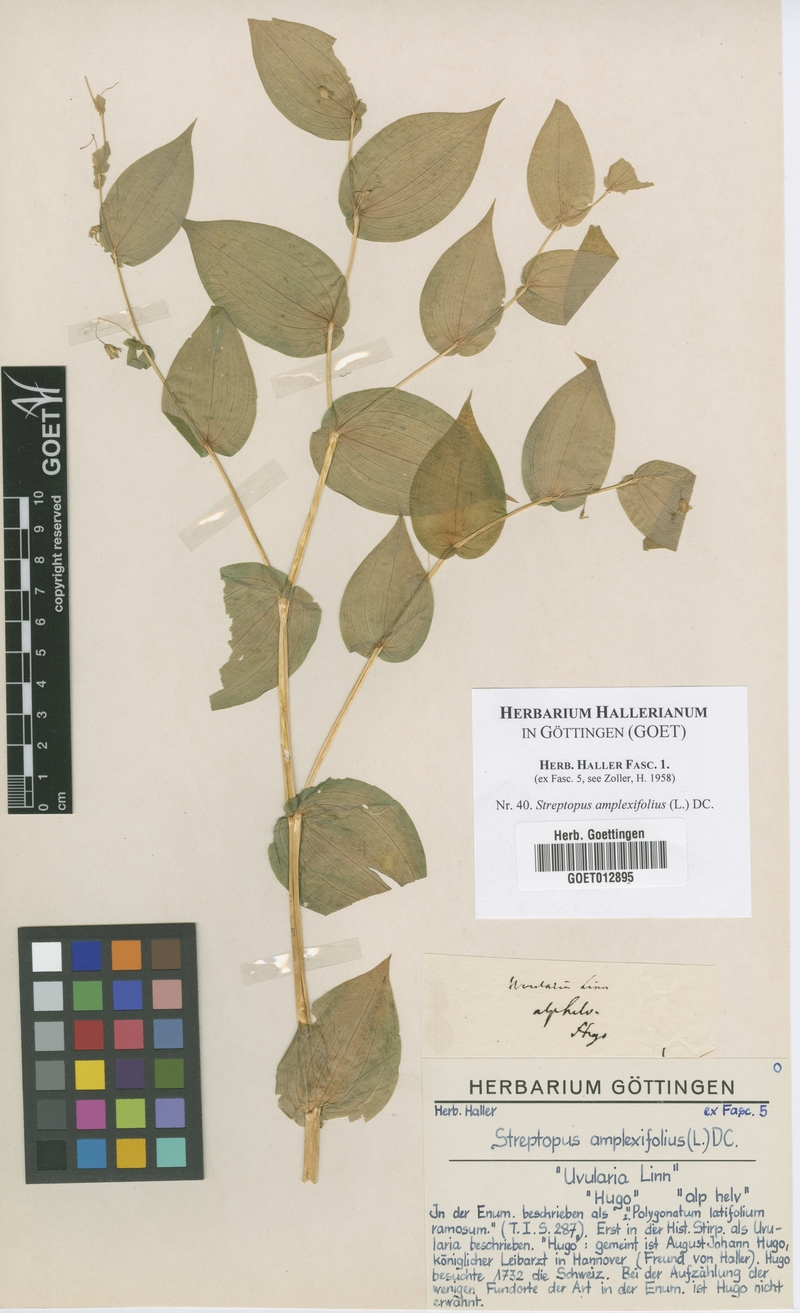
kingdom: Plantae
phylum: Tracheophyta
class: Liliopsida
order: Liliales
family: Liliaceae
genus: Streptopus
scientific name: Streptopus amplexifolius
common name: Clasp twisted stalk
